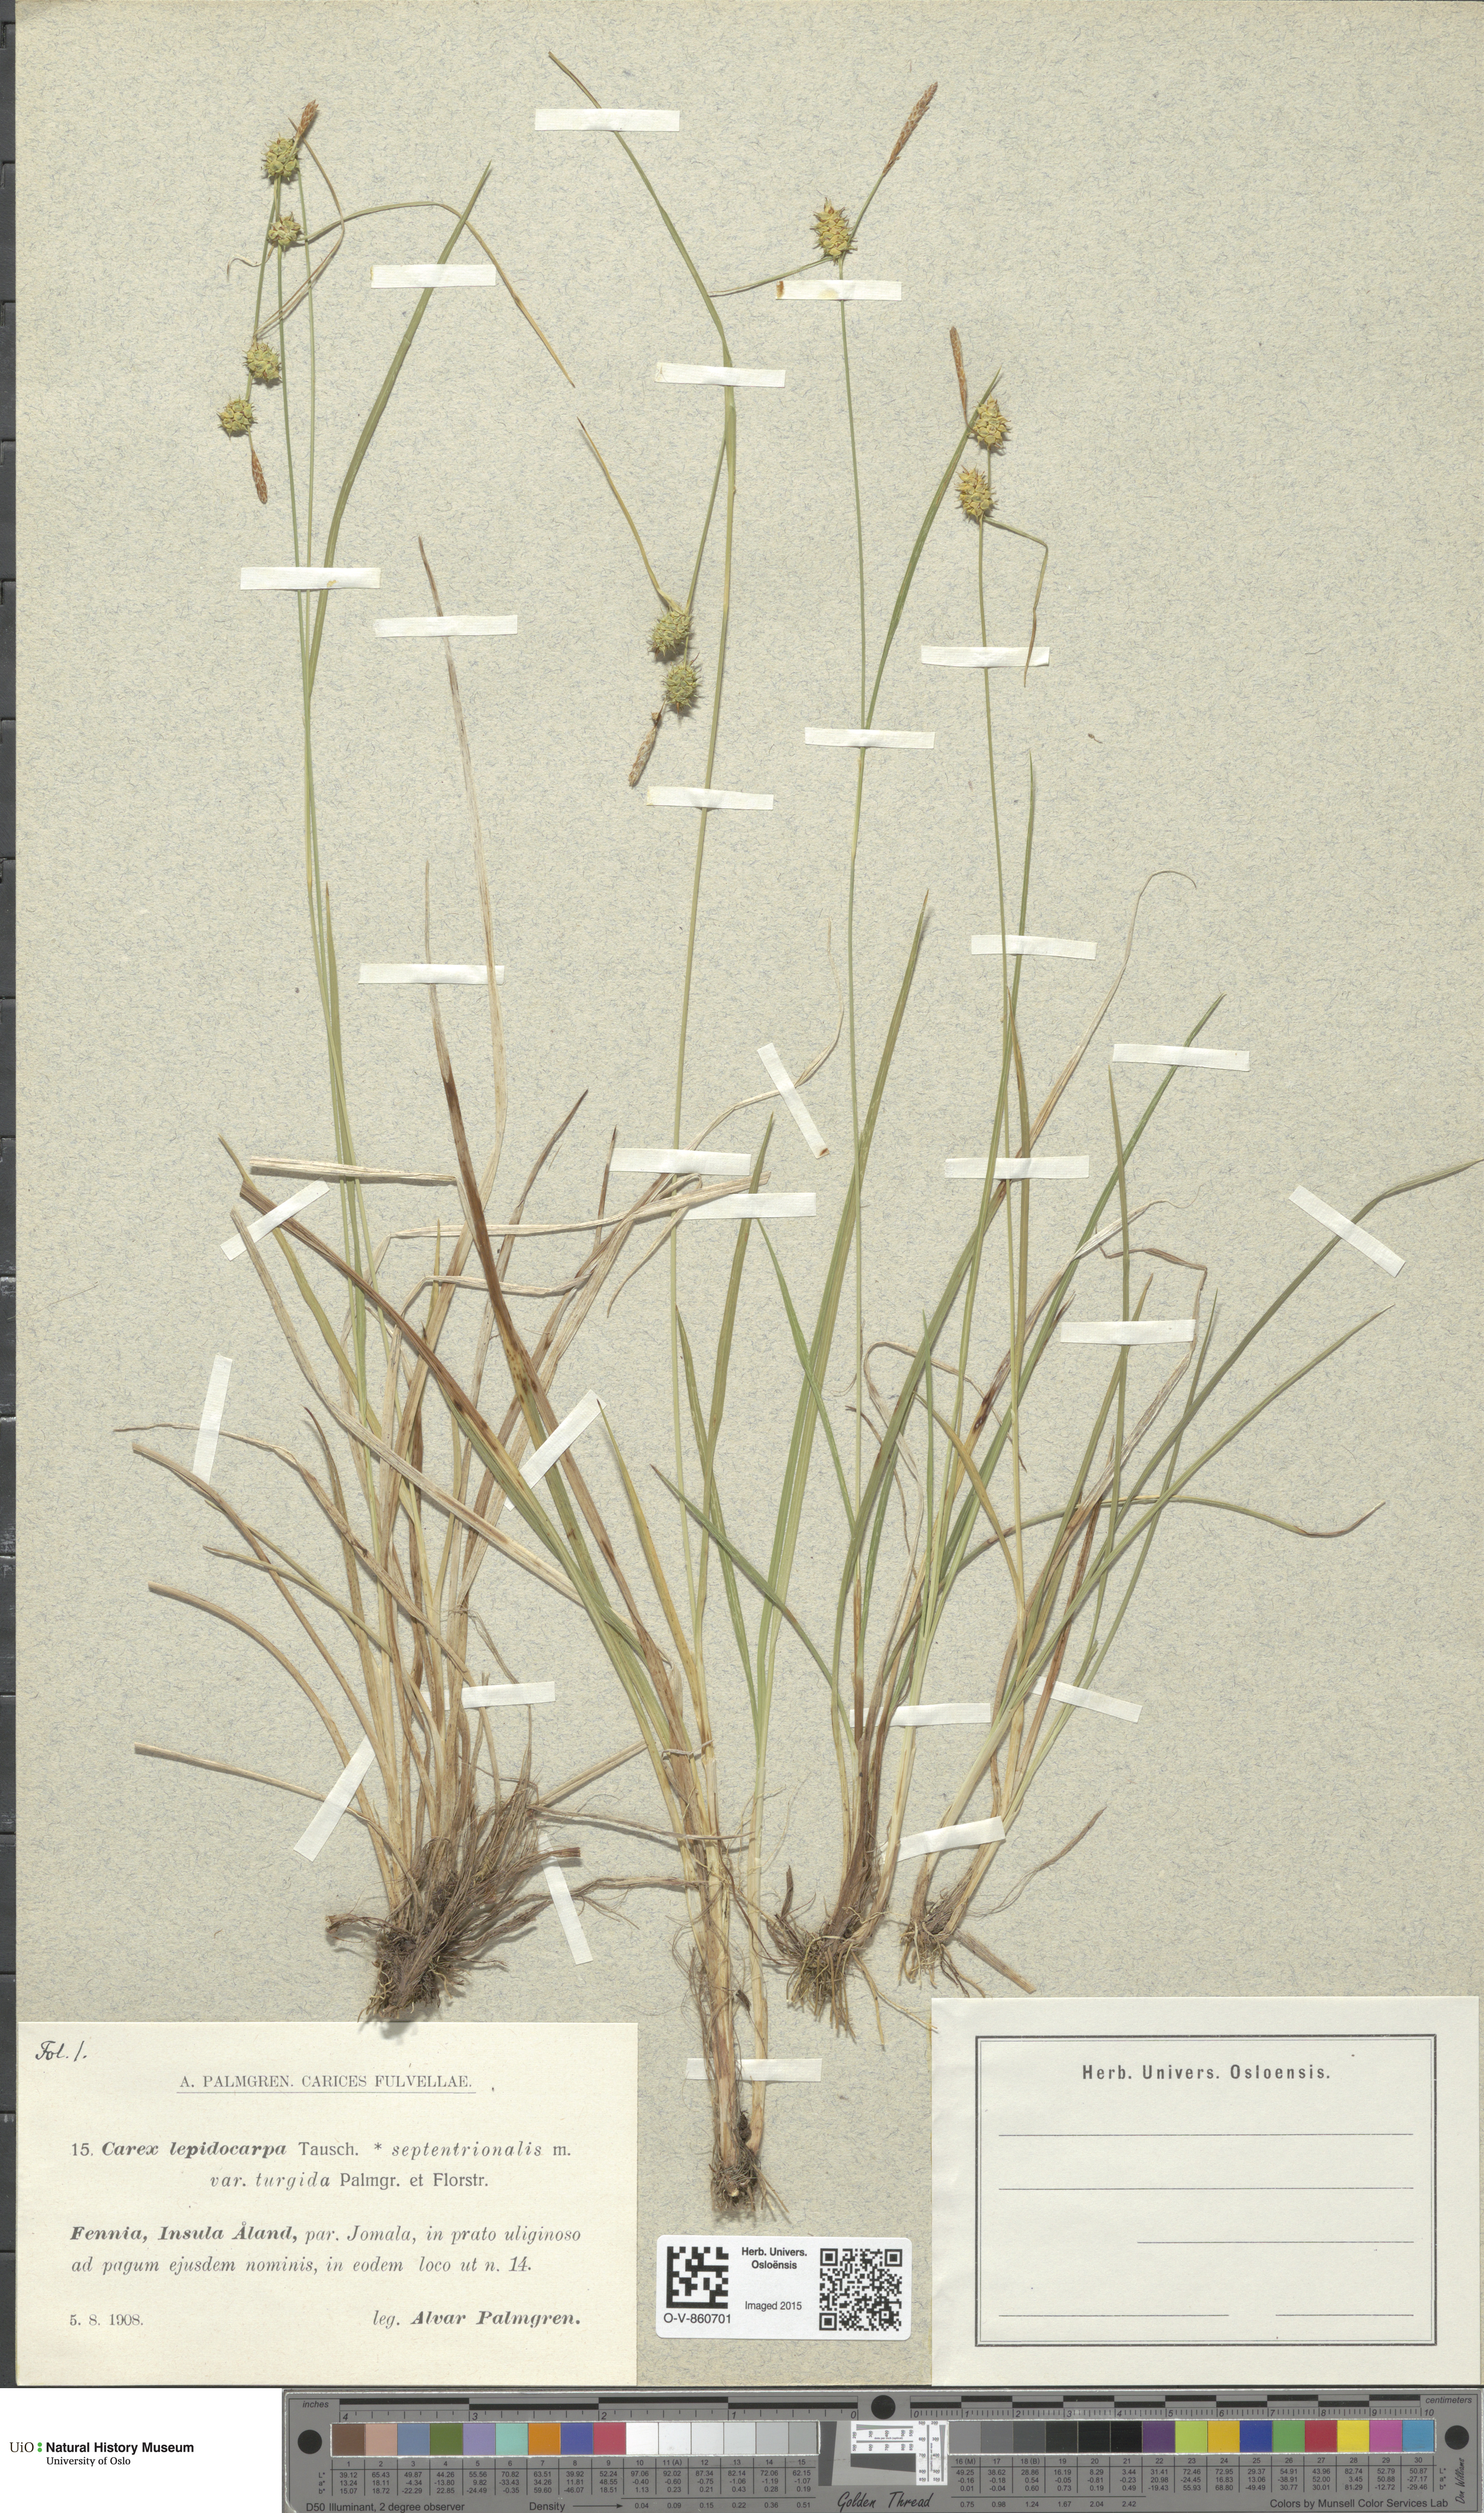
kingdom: Plantae
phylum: Tracheophyta
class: Liliopsida
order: Poales
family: Cyperaceae
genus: Carex
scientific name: Carex lepidocarpa
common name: Long-stalked yellow-sedge
